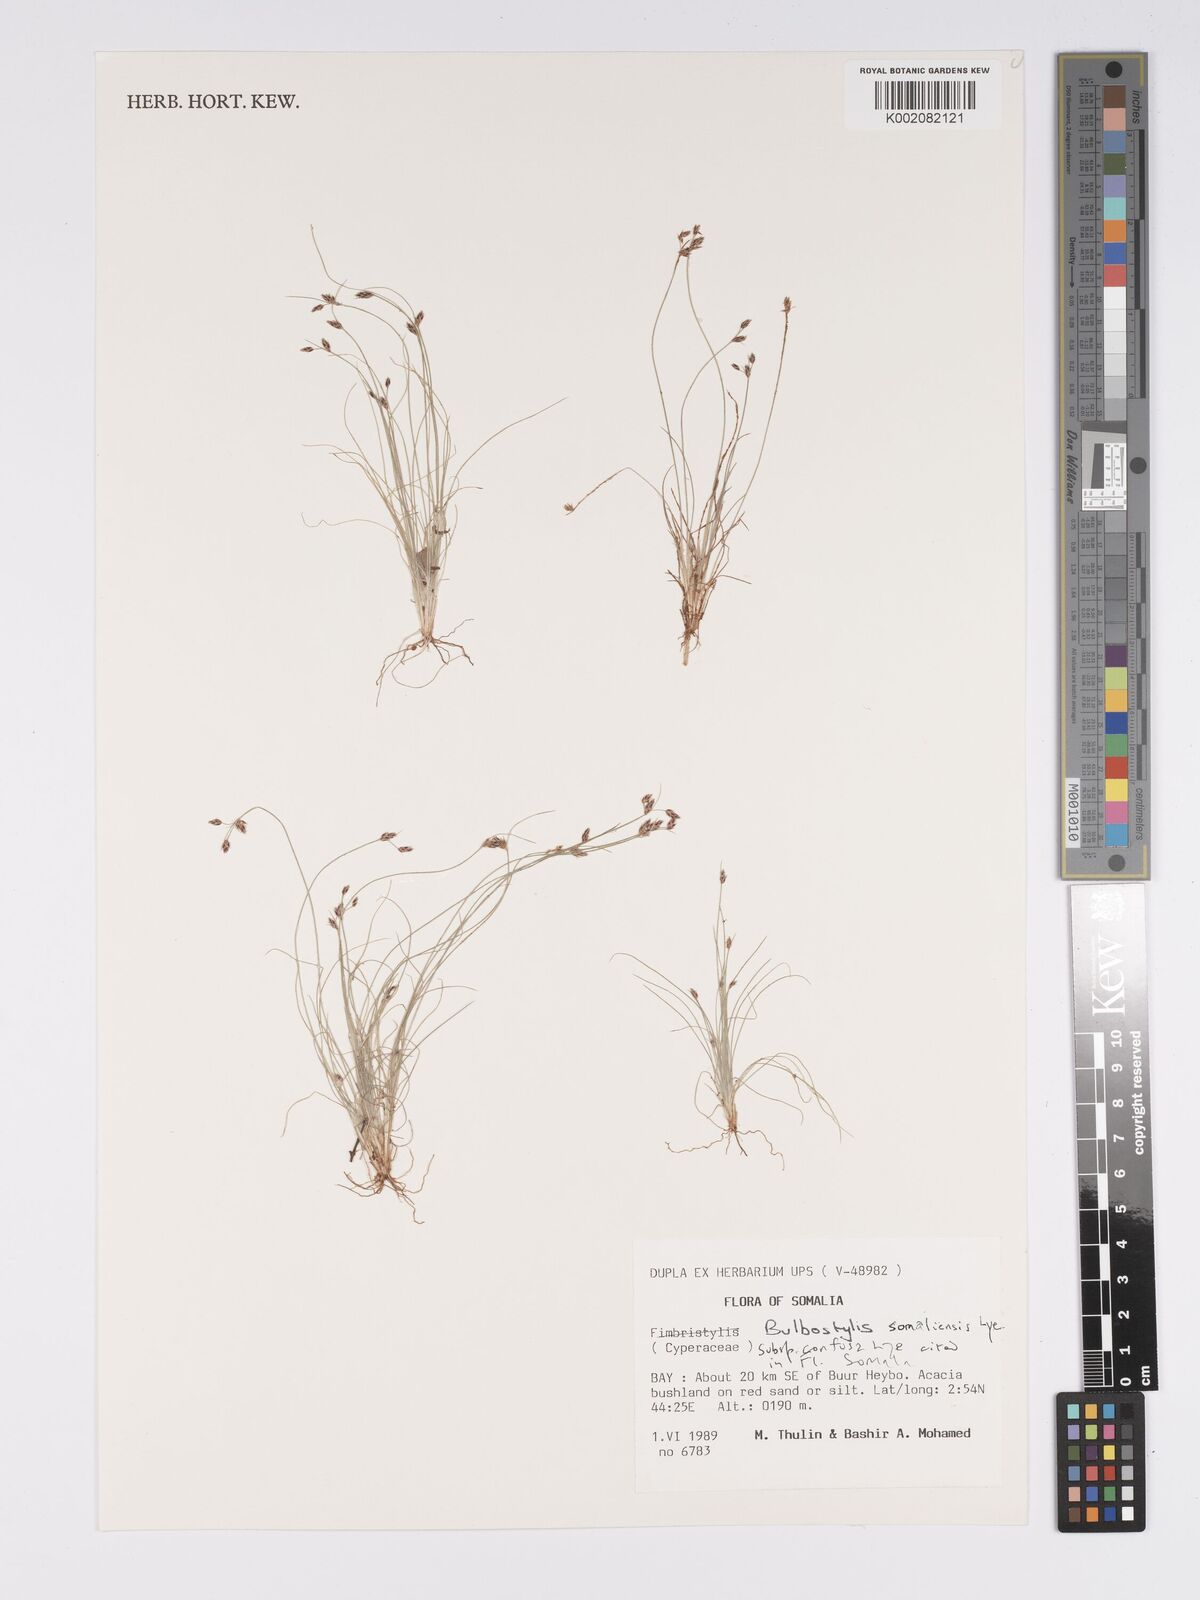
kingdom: Plantae
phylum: Tracheophyta
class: Liliopsida
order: Poales
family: Cyperaceae
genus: Bulbostylis
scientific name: Bulbostylis somaliensis
